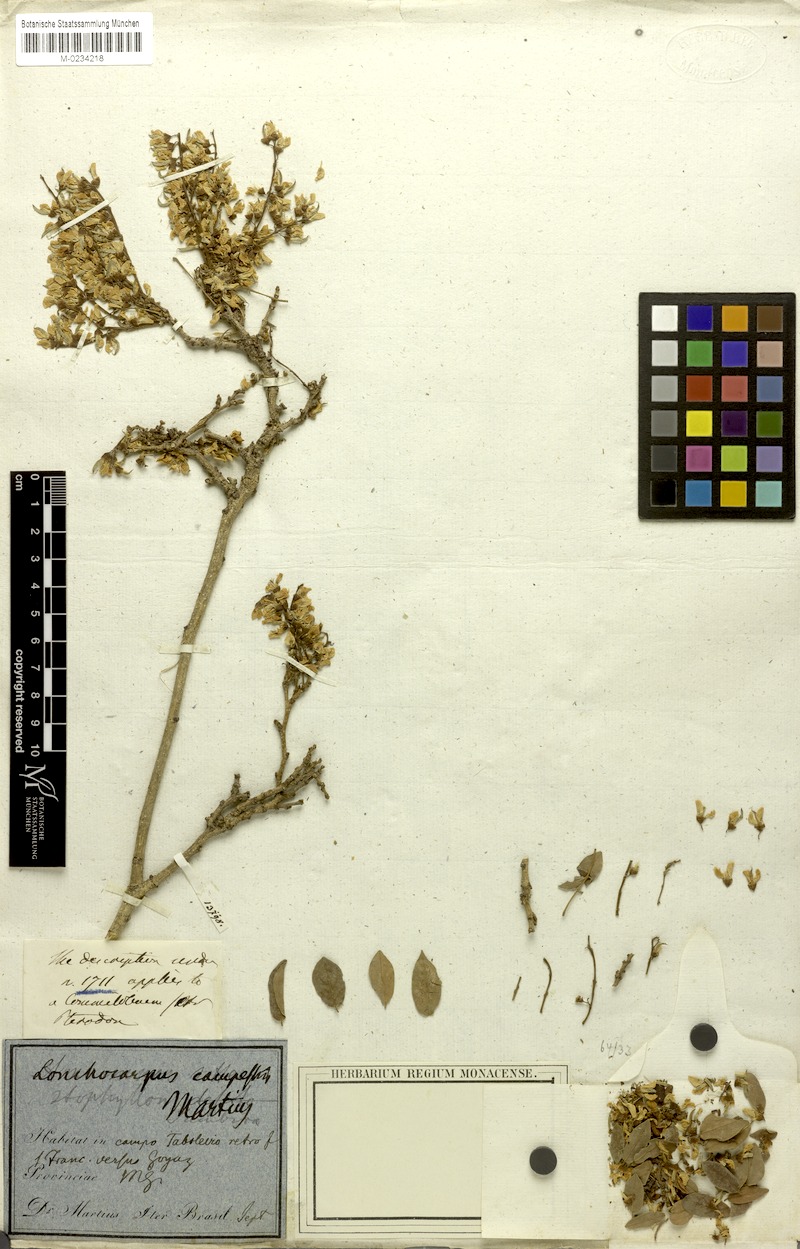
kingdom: Plantae
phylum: Tracheophyta
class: Magnoliopsida
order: Fabales
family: Fabaceae
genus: Muellera
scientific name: Muellera campestris
